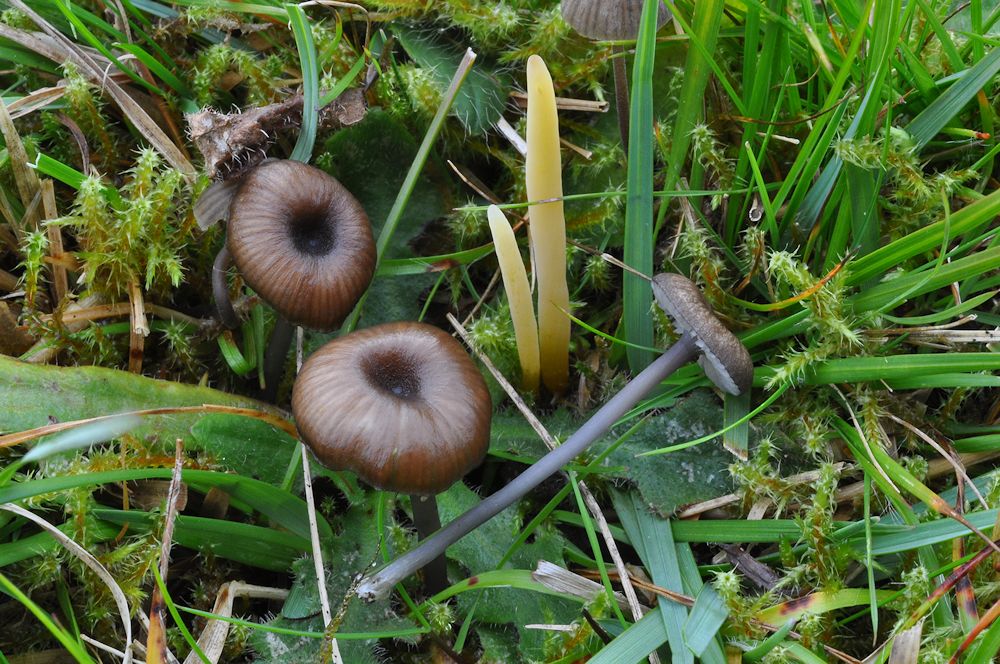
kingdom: Fungi
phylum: Basidiomycota
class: Agaricomycetes
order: Agaricales
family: Clavariaceae
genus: Clavaria
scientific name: Clavaria flavipes
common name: strågul køllesvamp
